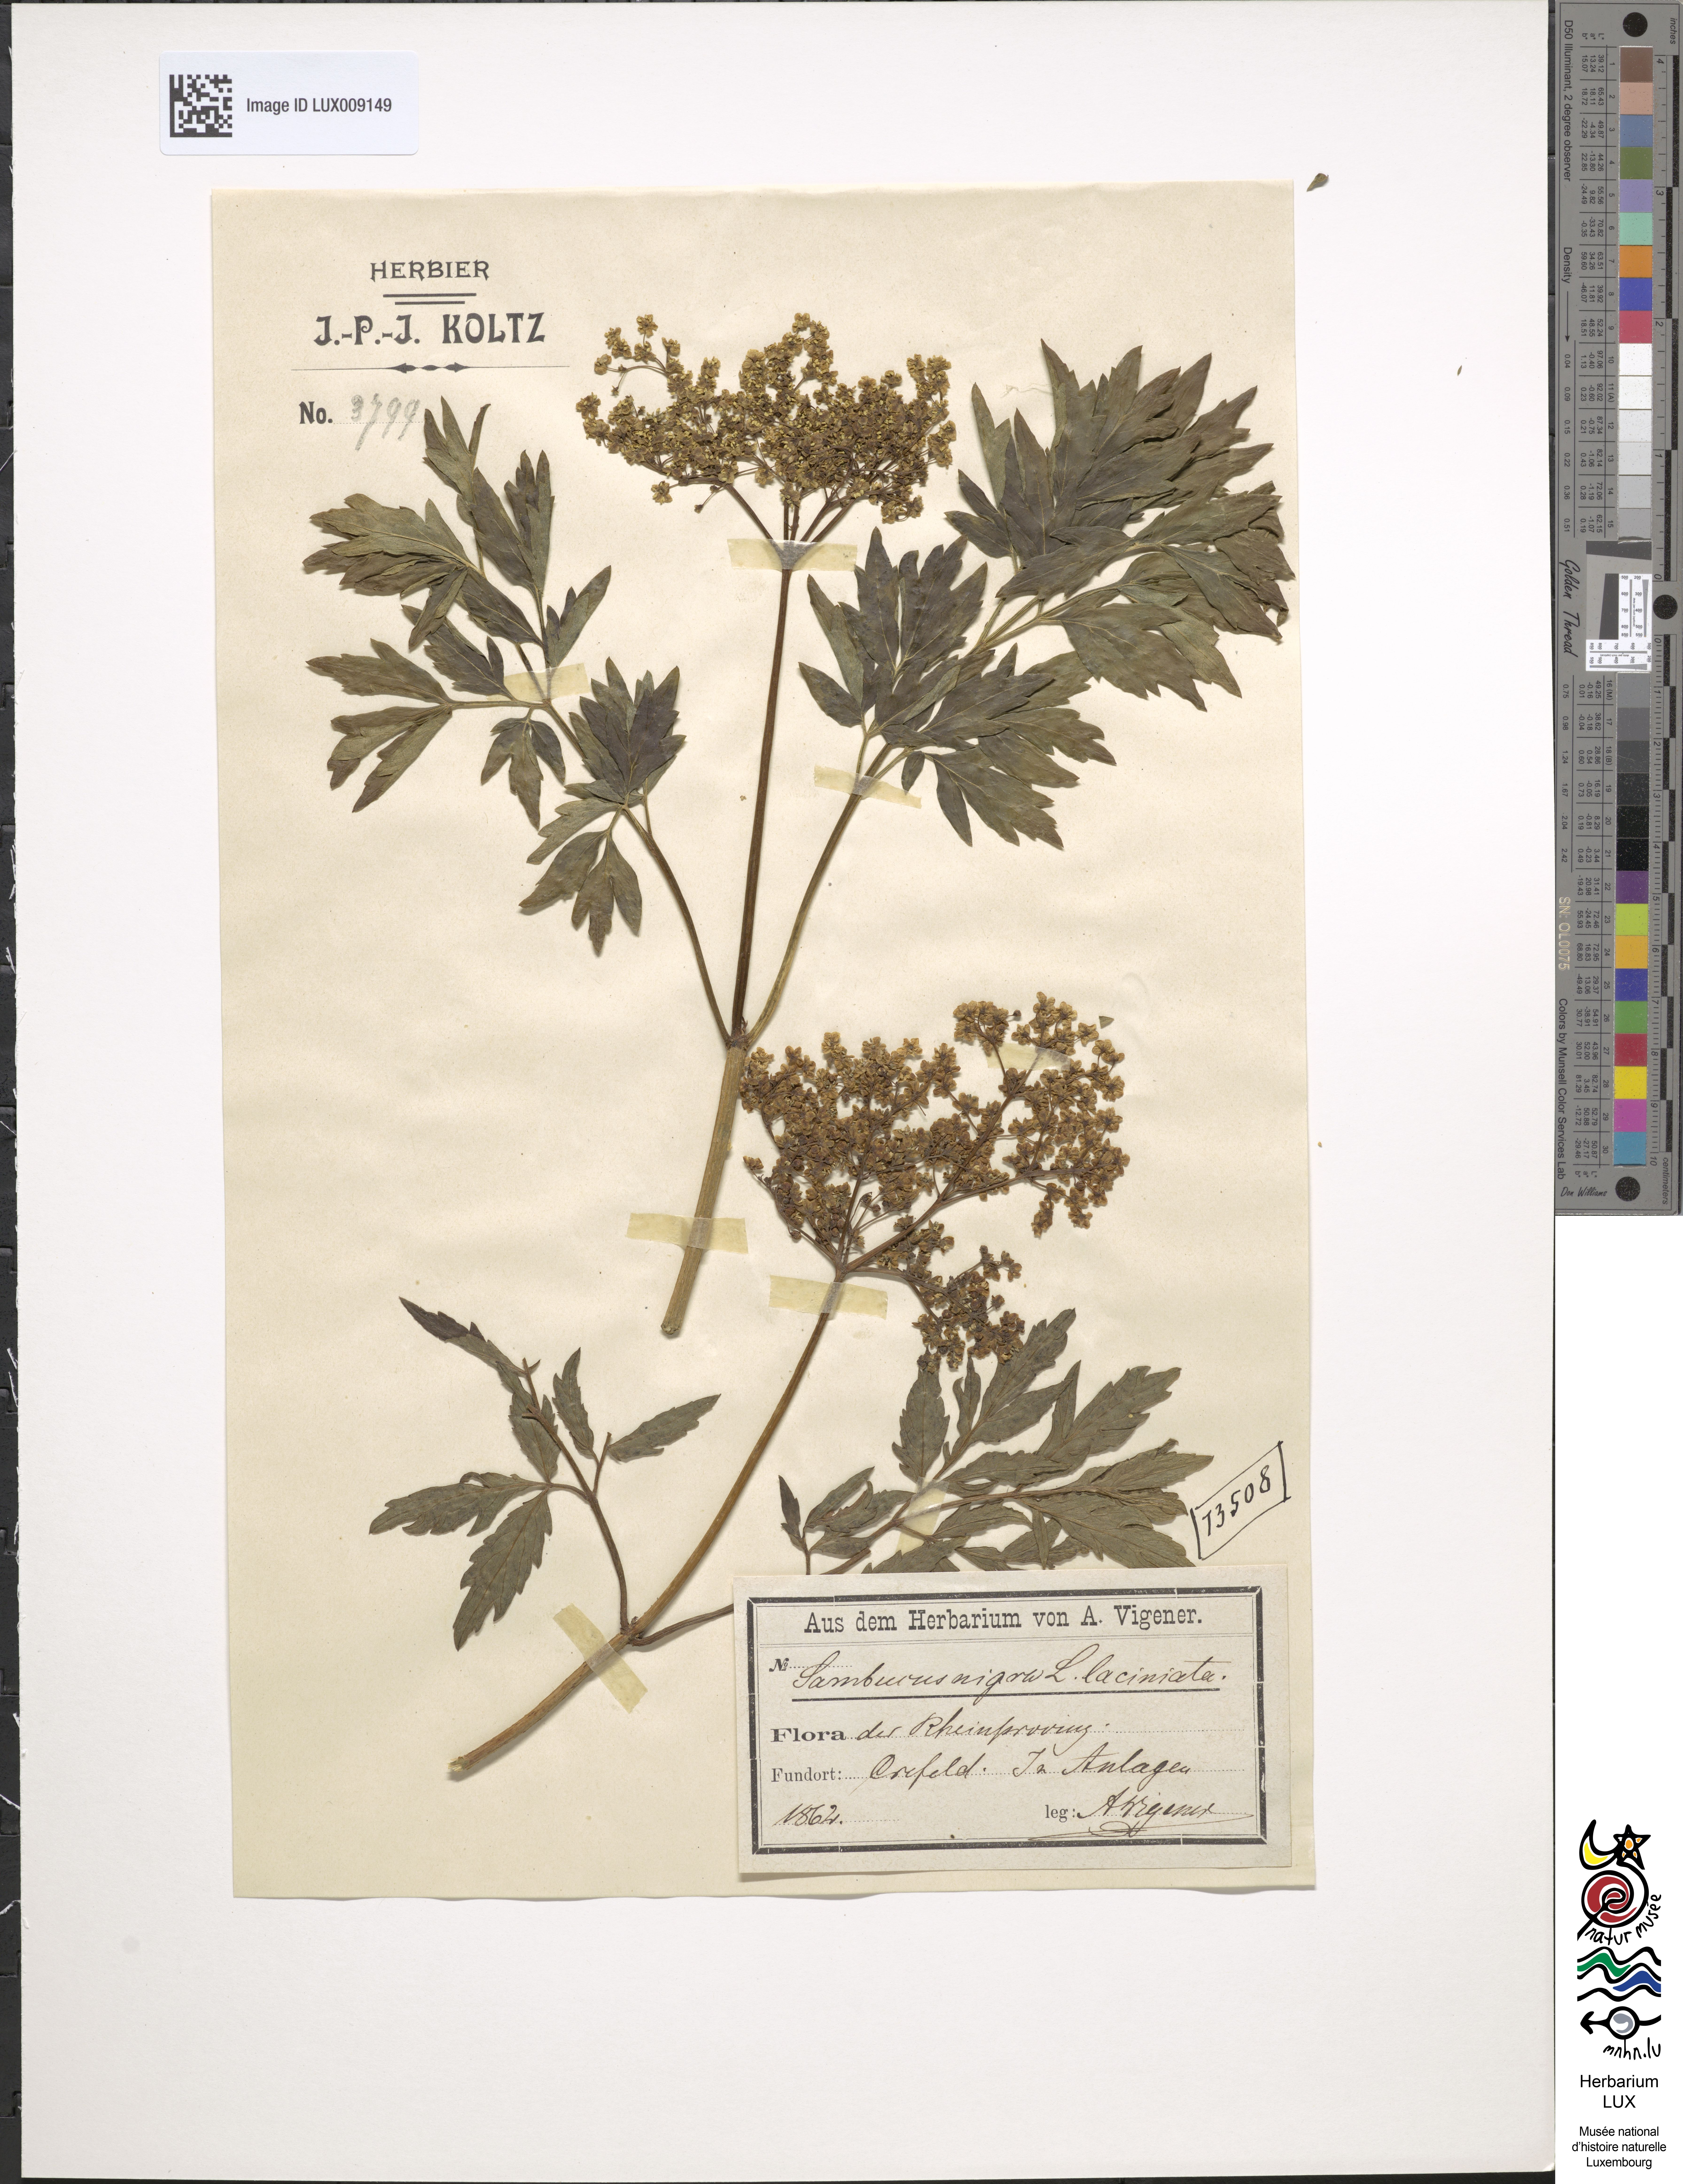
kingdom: Plantae
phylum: Tracheophyta
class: Magnoliopsida
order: Dipsacales
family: Viburnaceae
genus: Sambucus
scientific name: Sambucus nigra
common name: Elder
